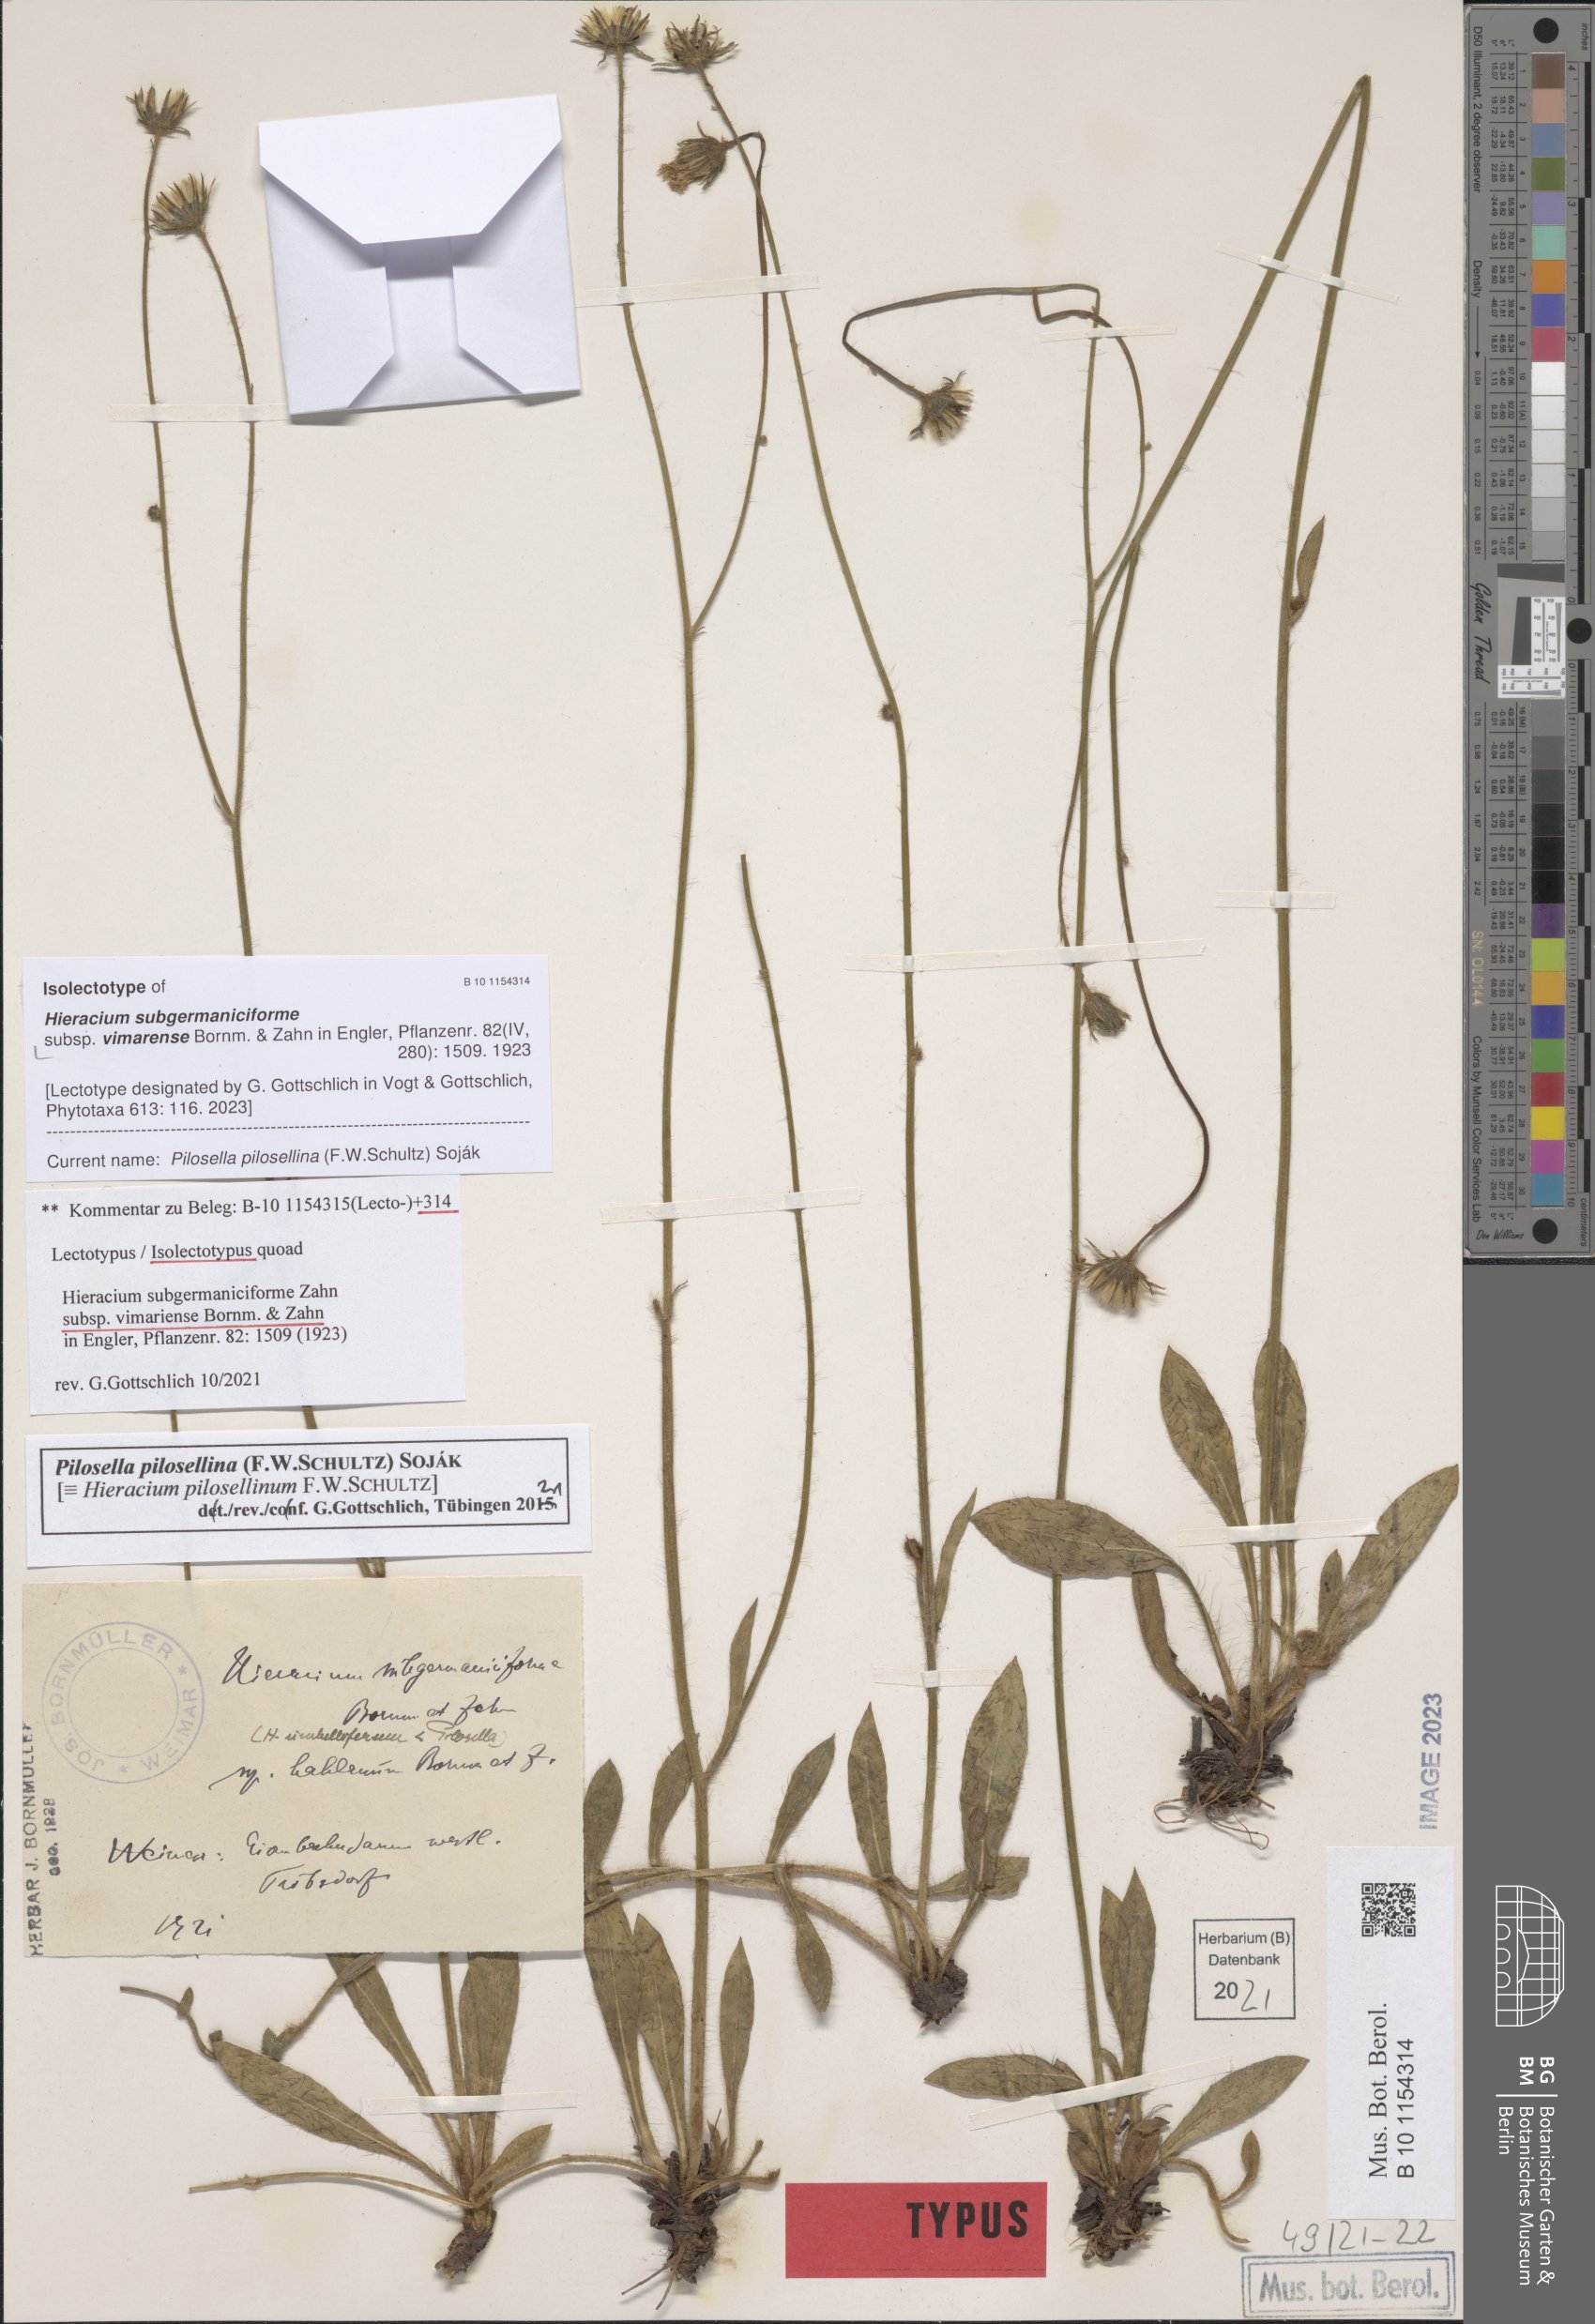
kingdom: Plantae
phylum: Tracheophyta
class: Magnoliopsida
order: Asterales
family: Asteraceae
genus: Pilosella
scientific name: Pilosella fallacina
